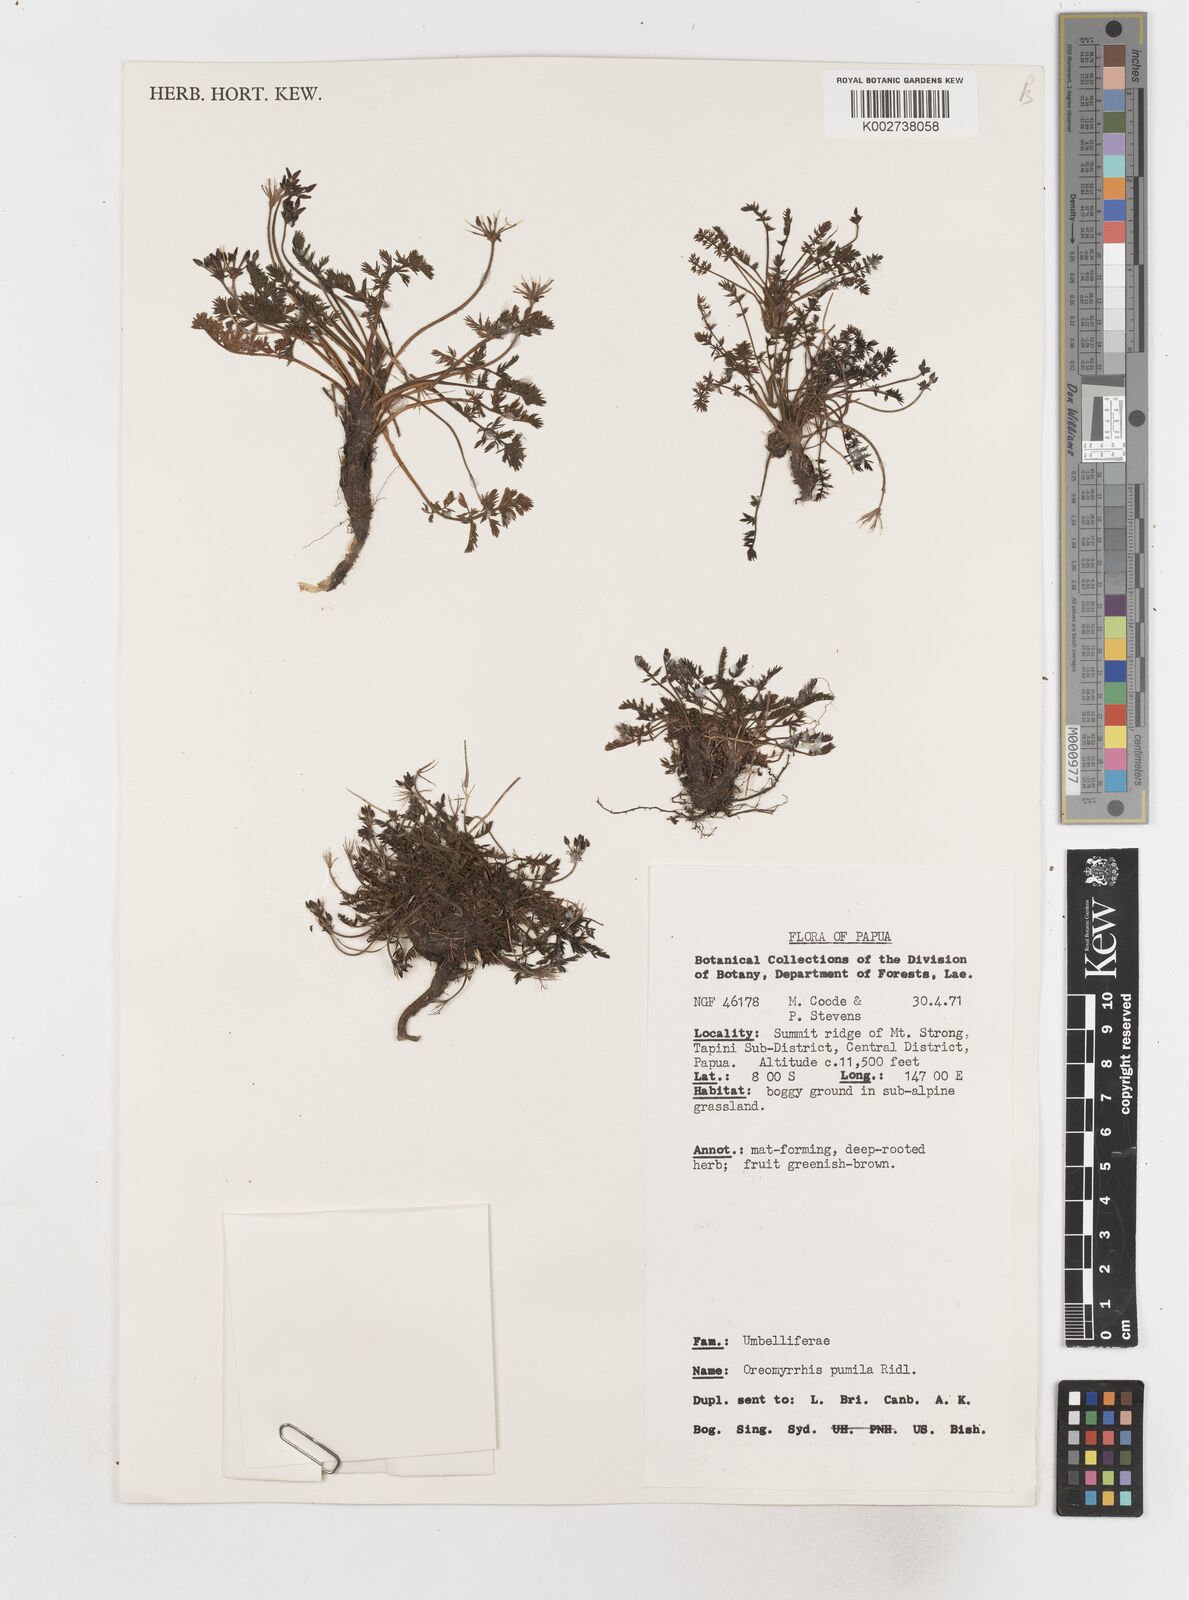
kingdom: Plantae
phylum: Tracheophyta
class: Magnoliopsida
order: Apiales
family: Apiaceae
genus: Chaerophyllum
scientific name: Chaerophyllum pumilum
